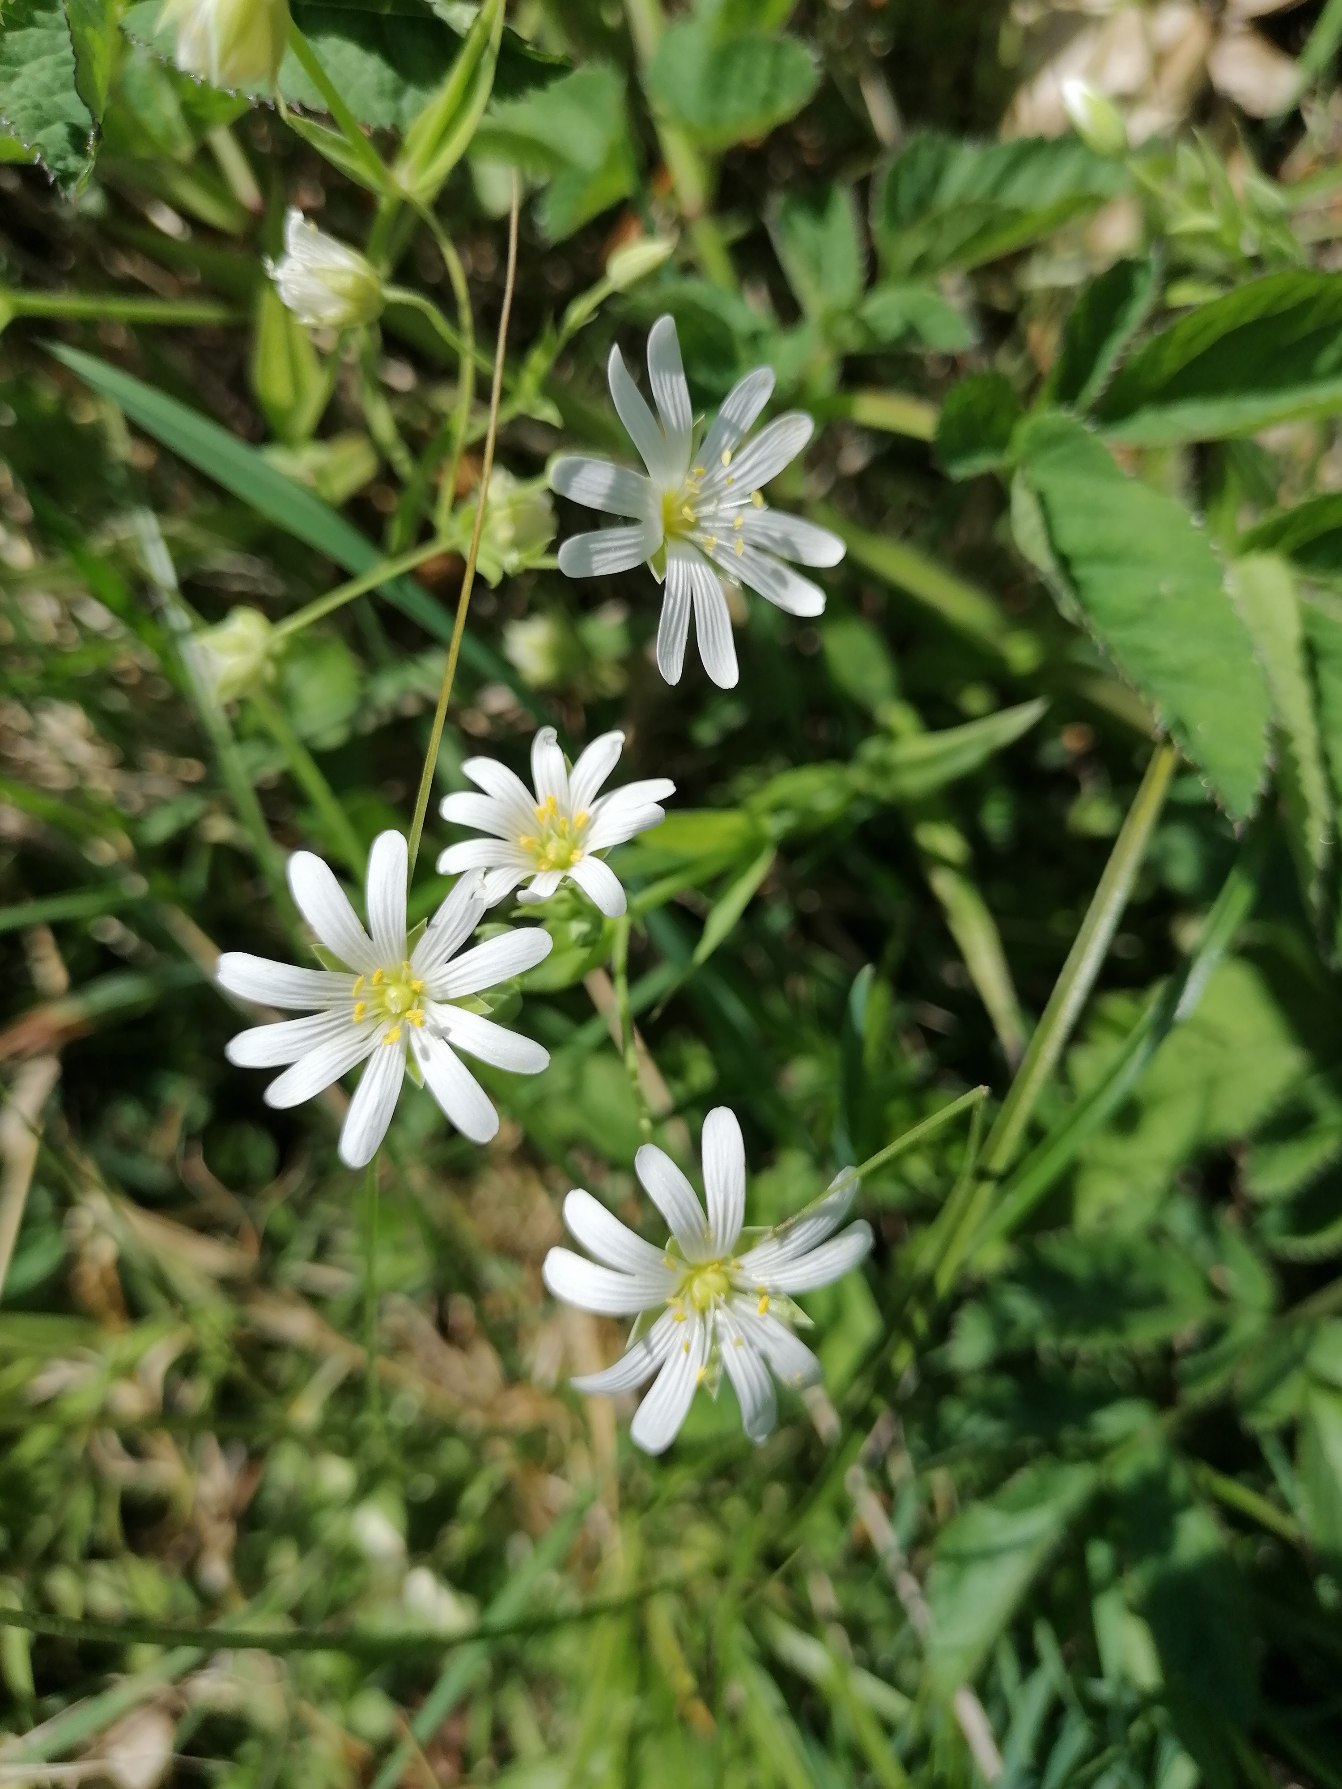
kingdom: Plantae
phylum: Tracheophyta
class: Magnoliopsida
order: Caryophyllales
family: Caryophyllaceae
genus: Rabelera
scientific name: Rabelera holostea
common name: Stor fladstjerne
